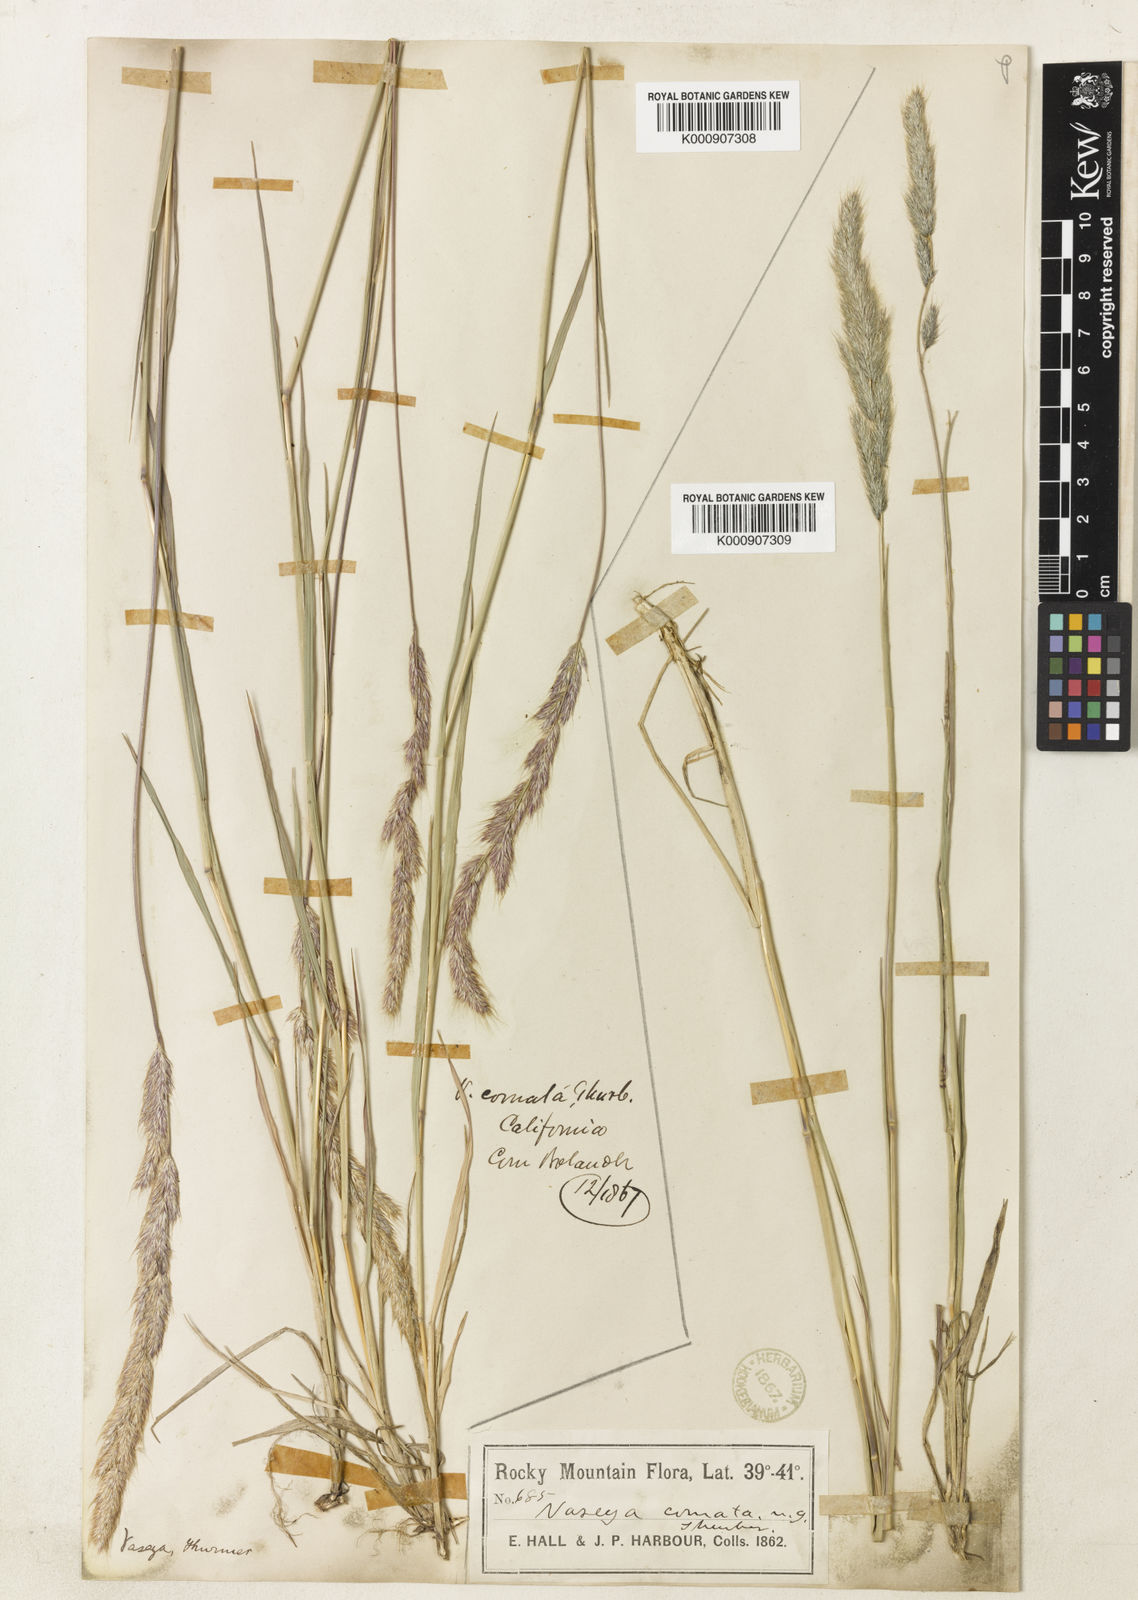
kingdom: Plantae
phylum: Tracheophyta
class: Liliopsida
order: Poales
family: Poaceae
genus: Muhlenbergia
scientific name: Muhlenbergia andina
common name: Foxtail muhly
